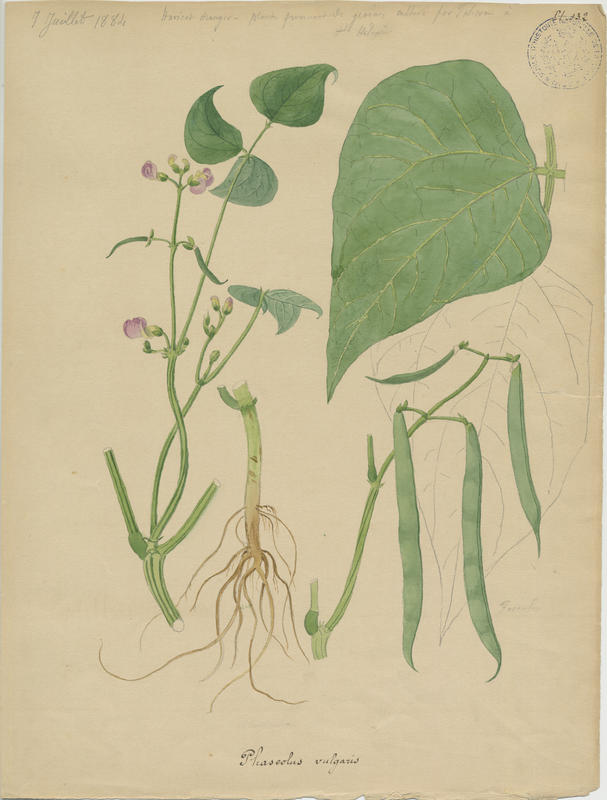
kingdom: Plantae
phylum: Tracheophyta
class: Magnoliopsida
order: Fabales
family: Fabaceae
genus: Phaseolus
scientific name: Phaseolus vulgaris
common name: Bean
